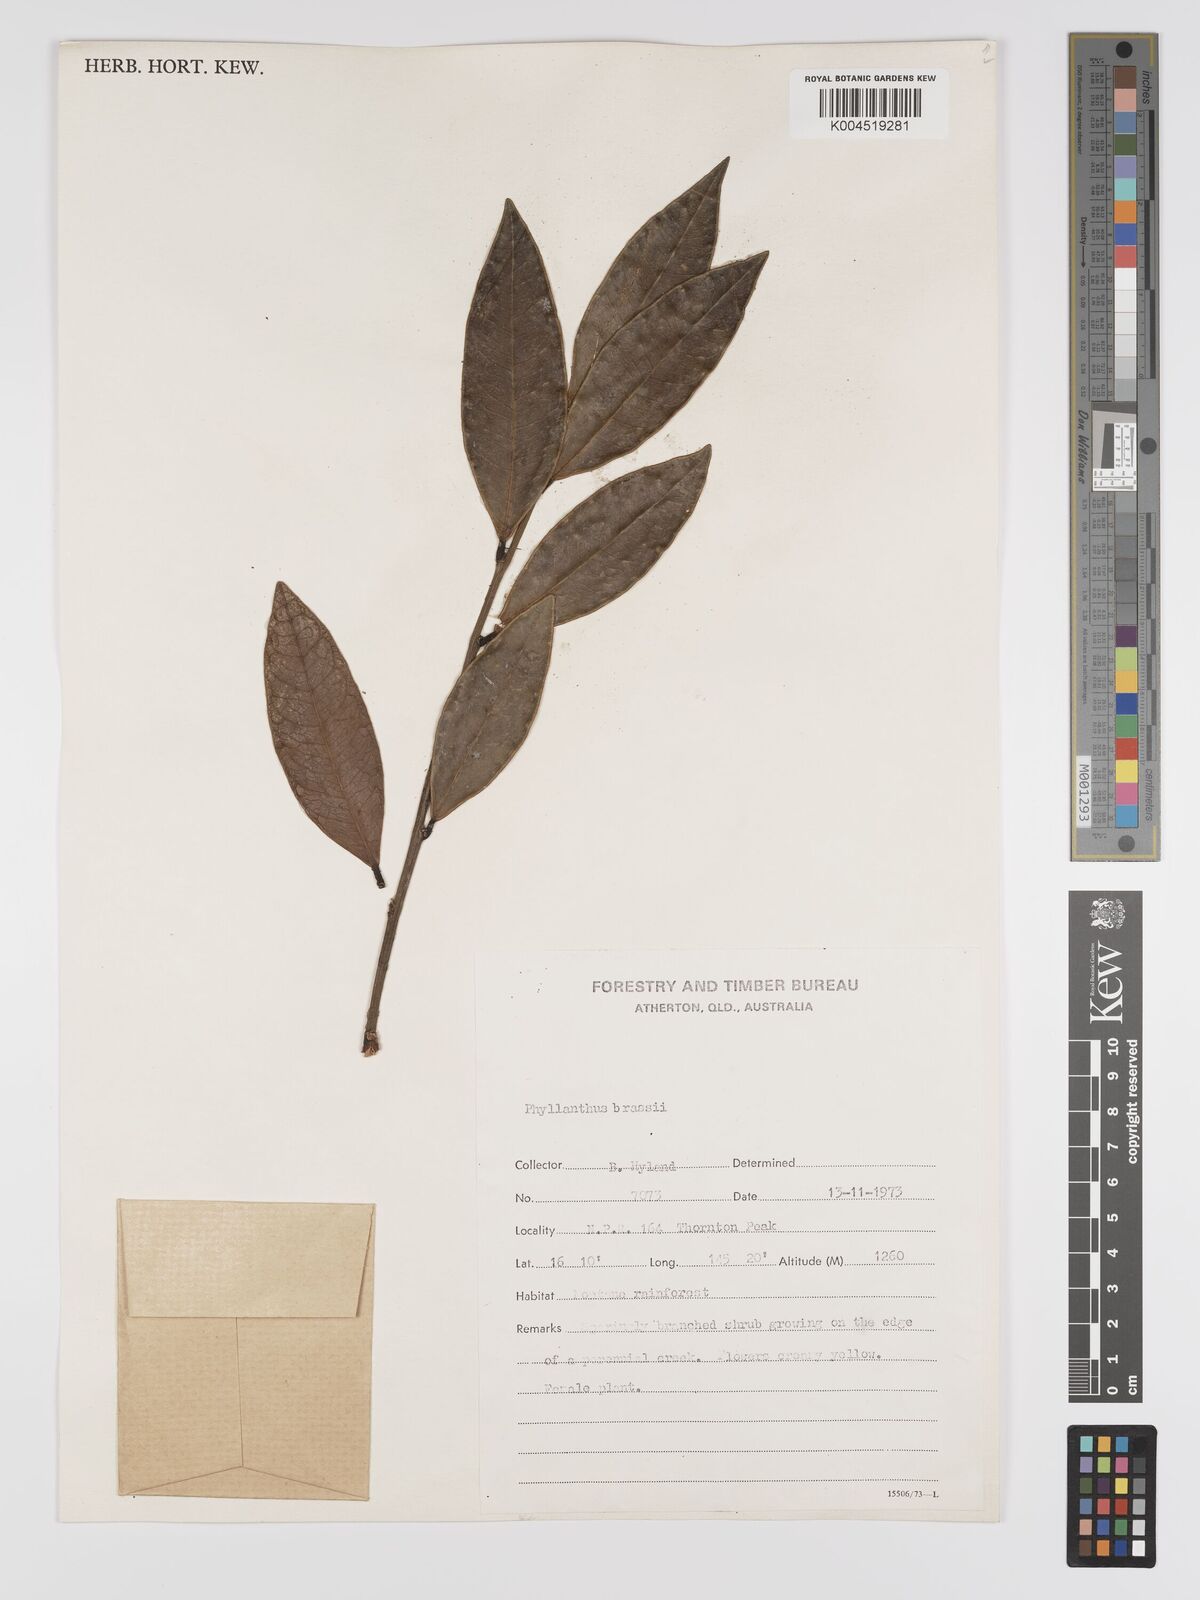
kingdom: Plantae
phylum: Tracheophyta
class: Magnoliopsida
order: Malpighiales
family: Phyllanthaceae
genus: Phyllanthus
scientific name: Phyllanthus brassii
